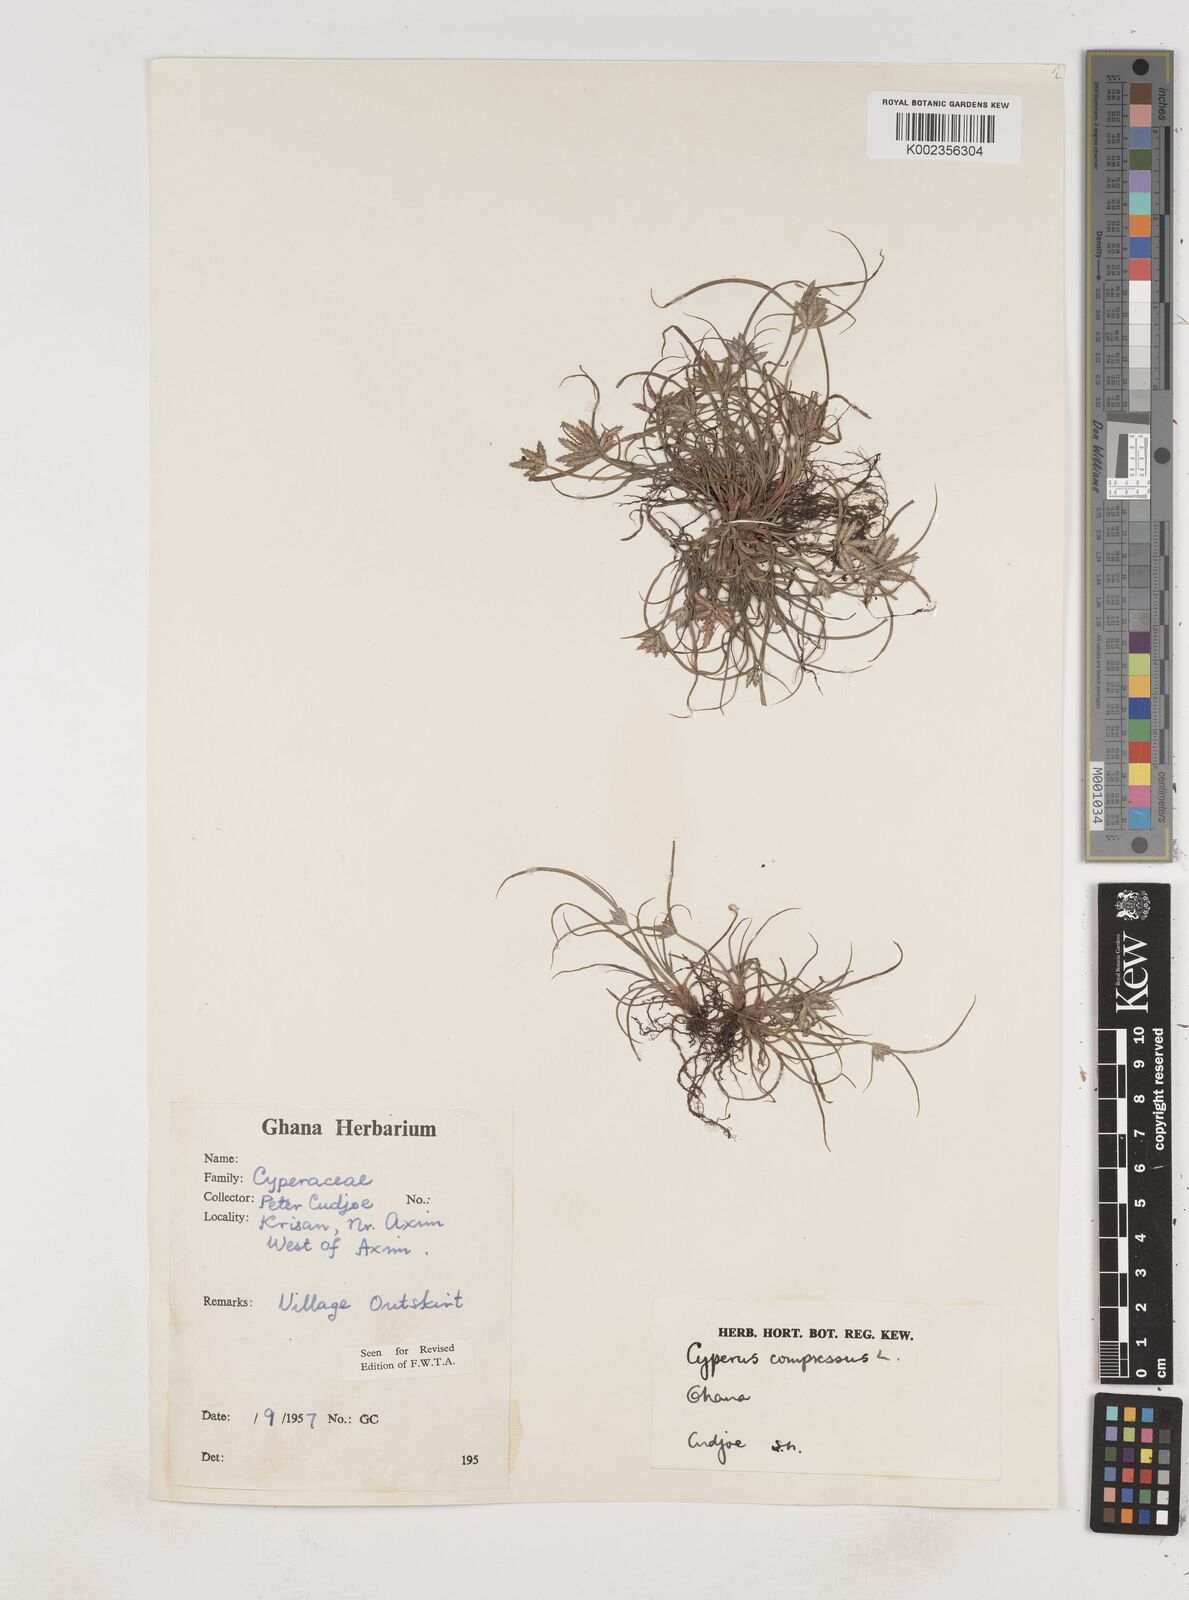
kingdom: Plantae
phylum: Tracheophyta
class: Liliopsida
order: Poales
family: Cyperaceae
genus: Cyperus
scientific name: Cyperus compressus
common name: Poorland flatsedge
